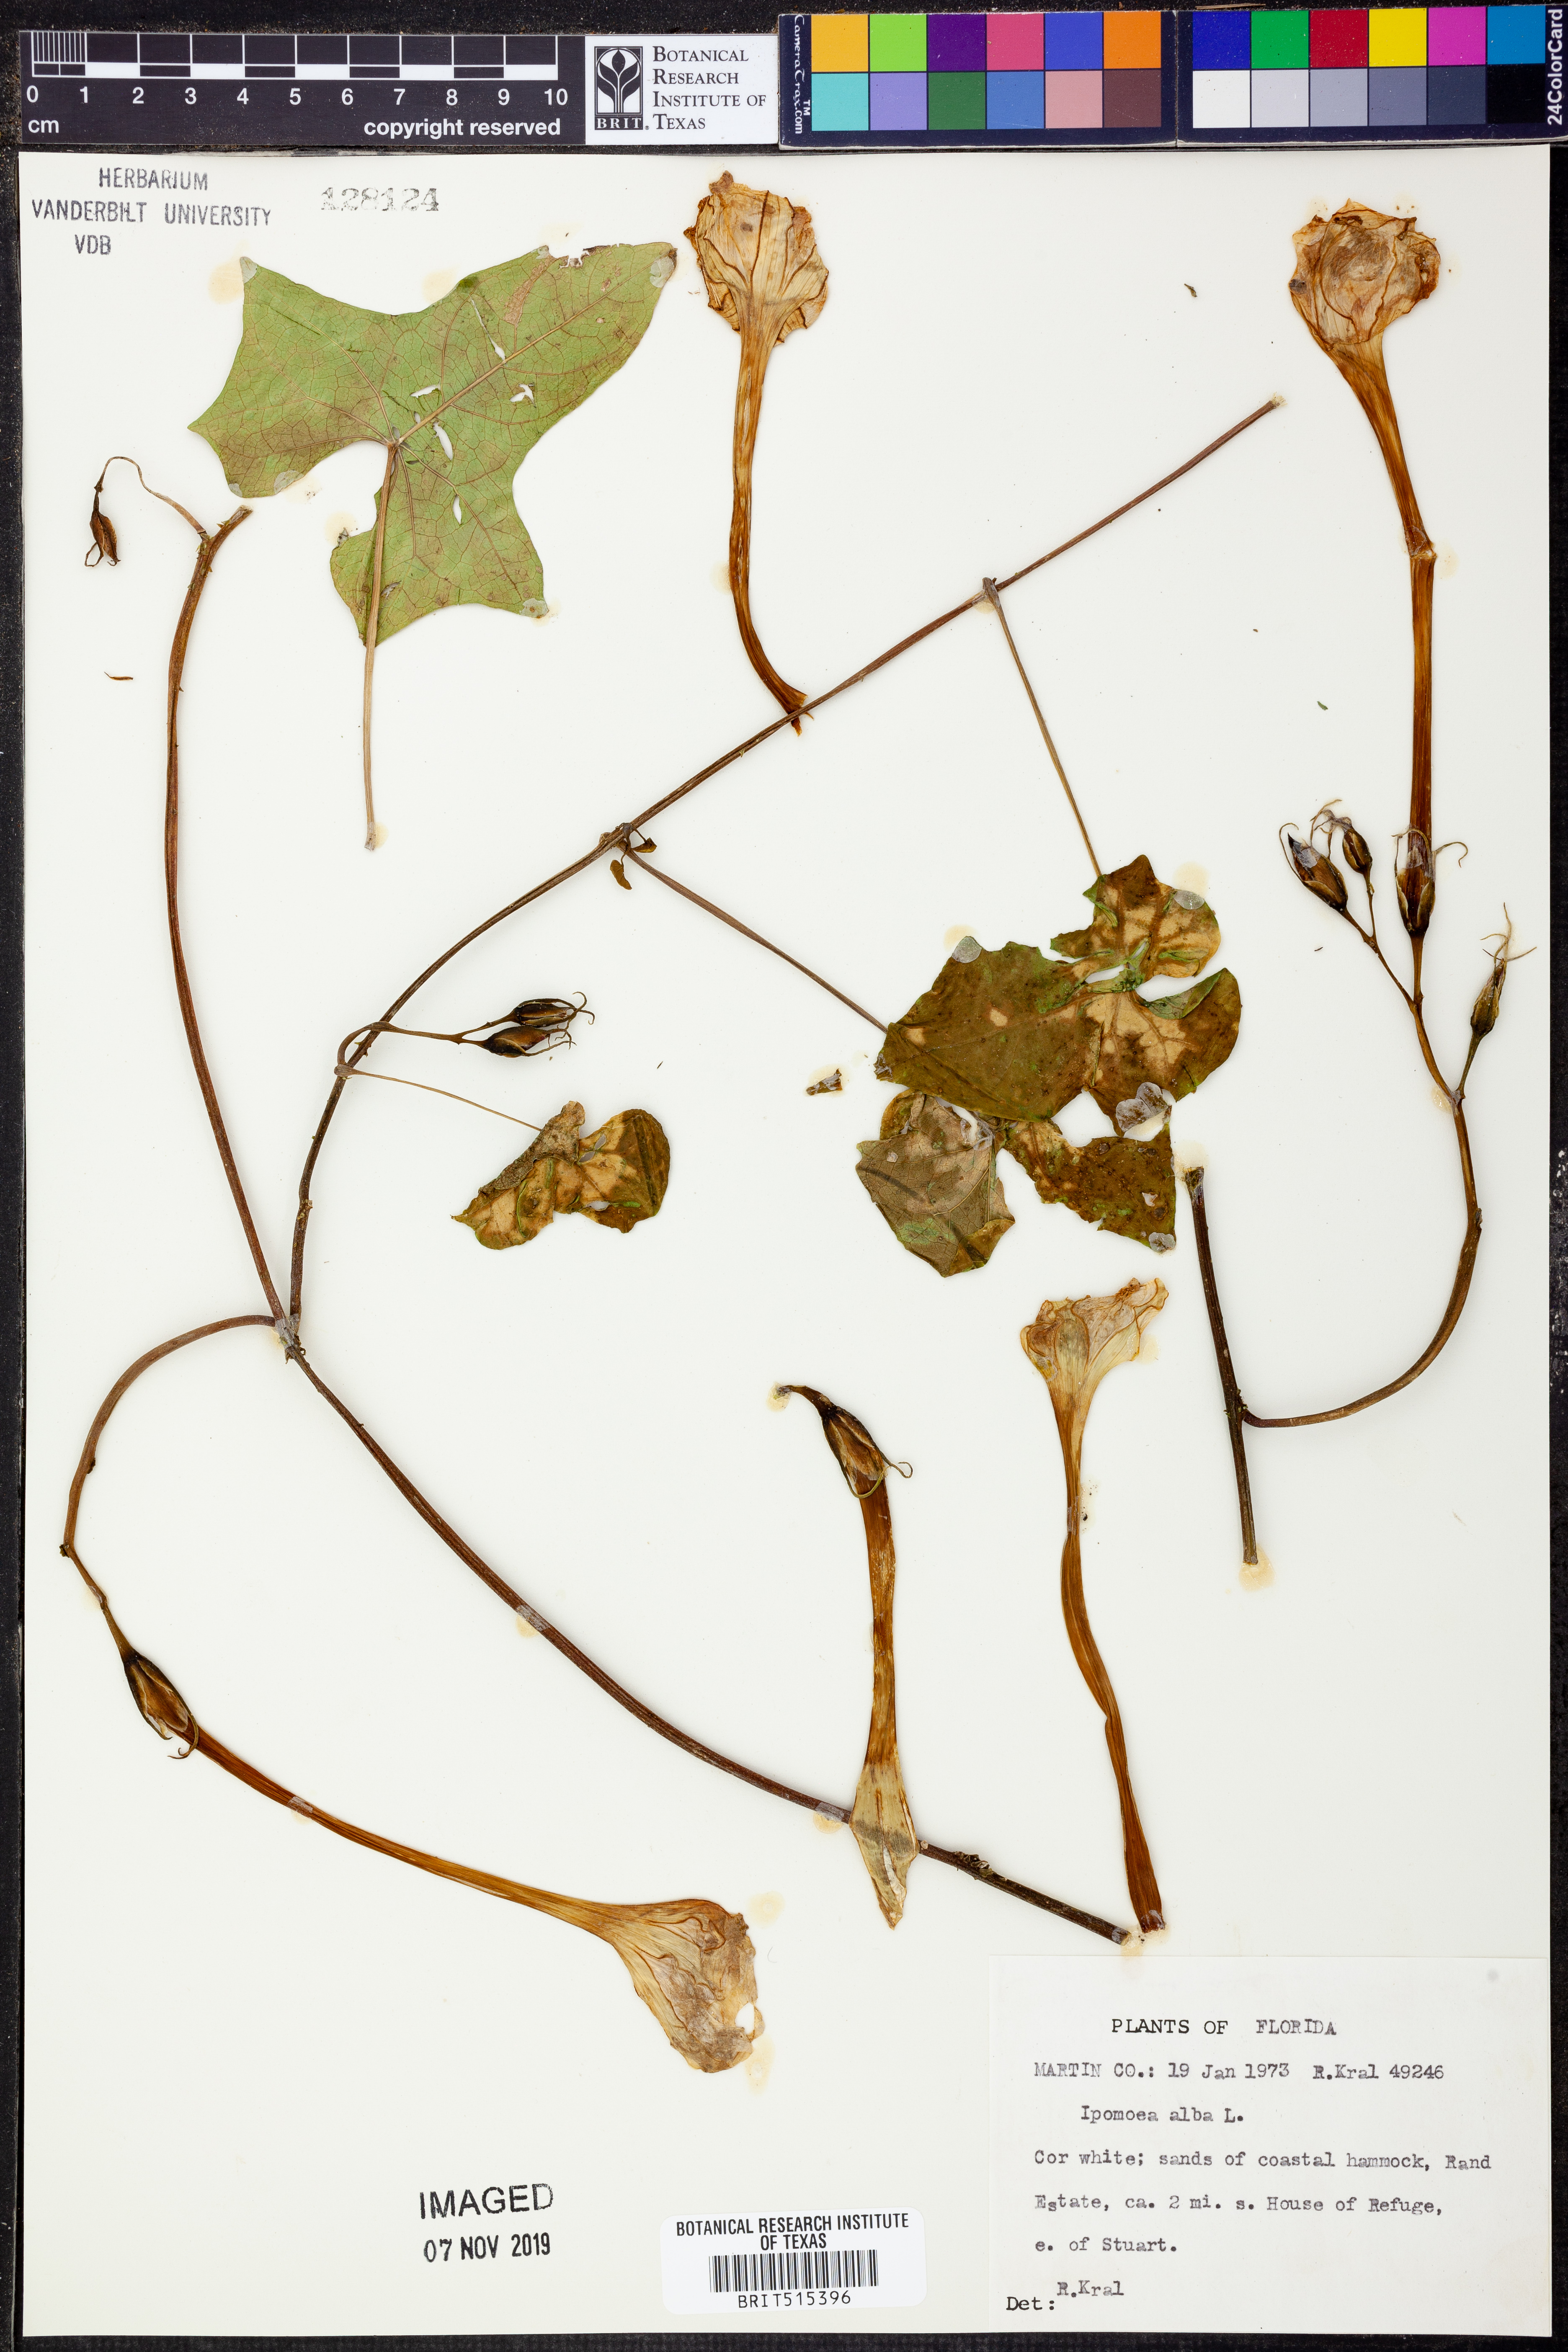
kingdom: Plantae
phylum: Tracheophyta
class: Magnoliopsida
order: Solanales
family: Convolvulaceae
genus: Ipomoea
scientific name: Ipomoea alba
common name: Moonflower
